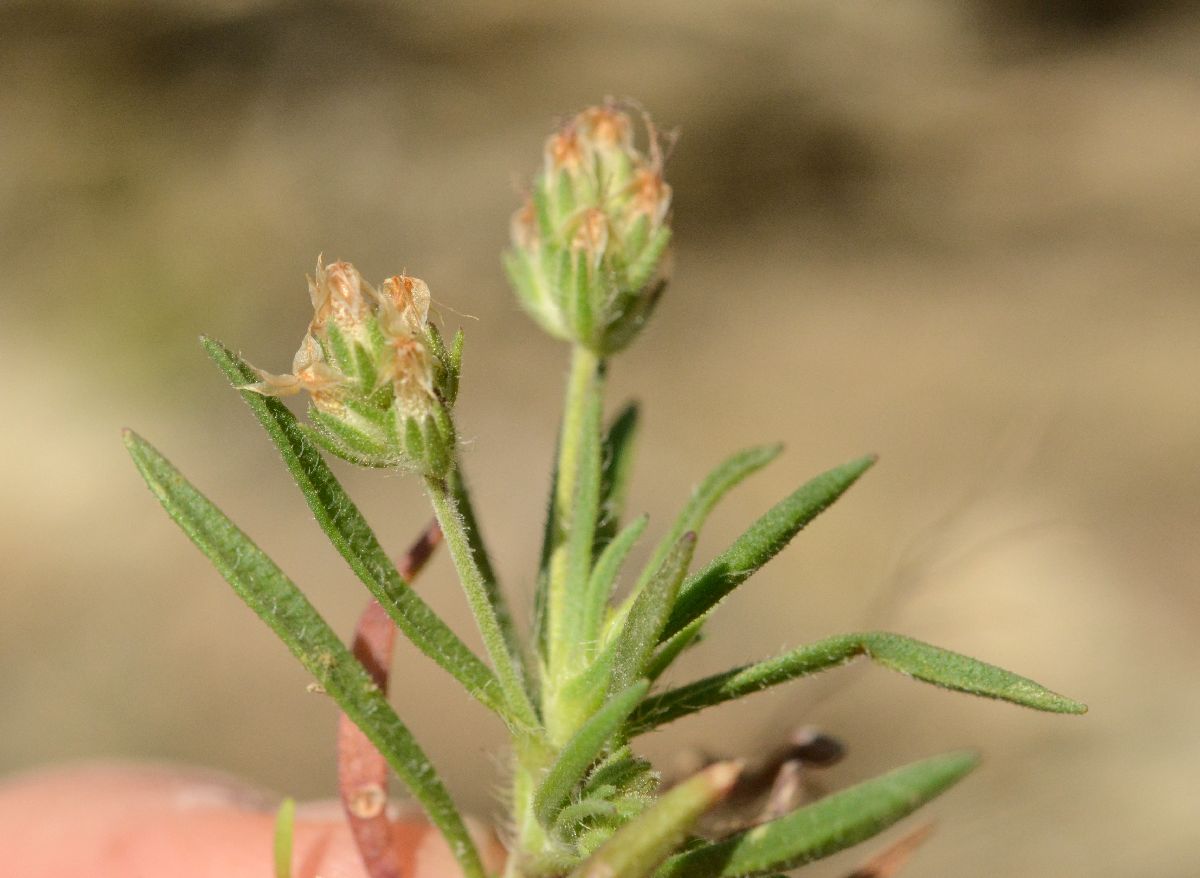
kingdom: Plantae
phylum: Tracheophyta
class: Magnoliopsida
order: Lamiales
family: Plantaginaceae
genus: Plantago
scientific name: Plantago afra
